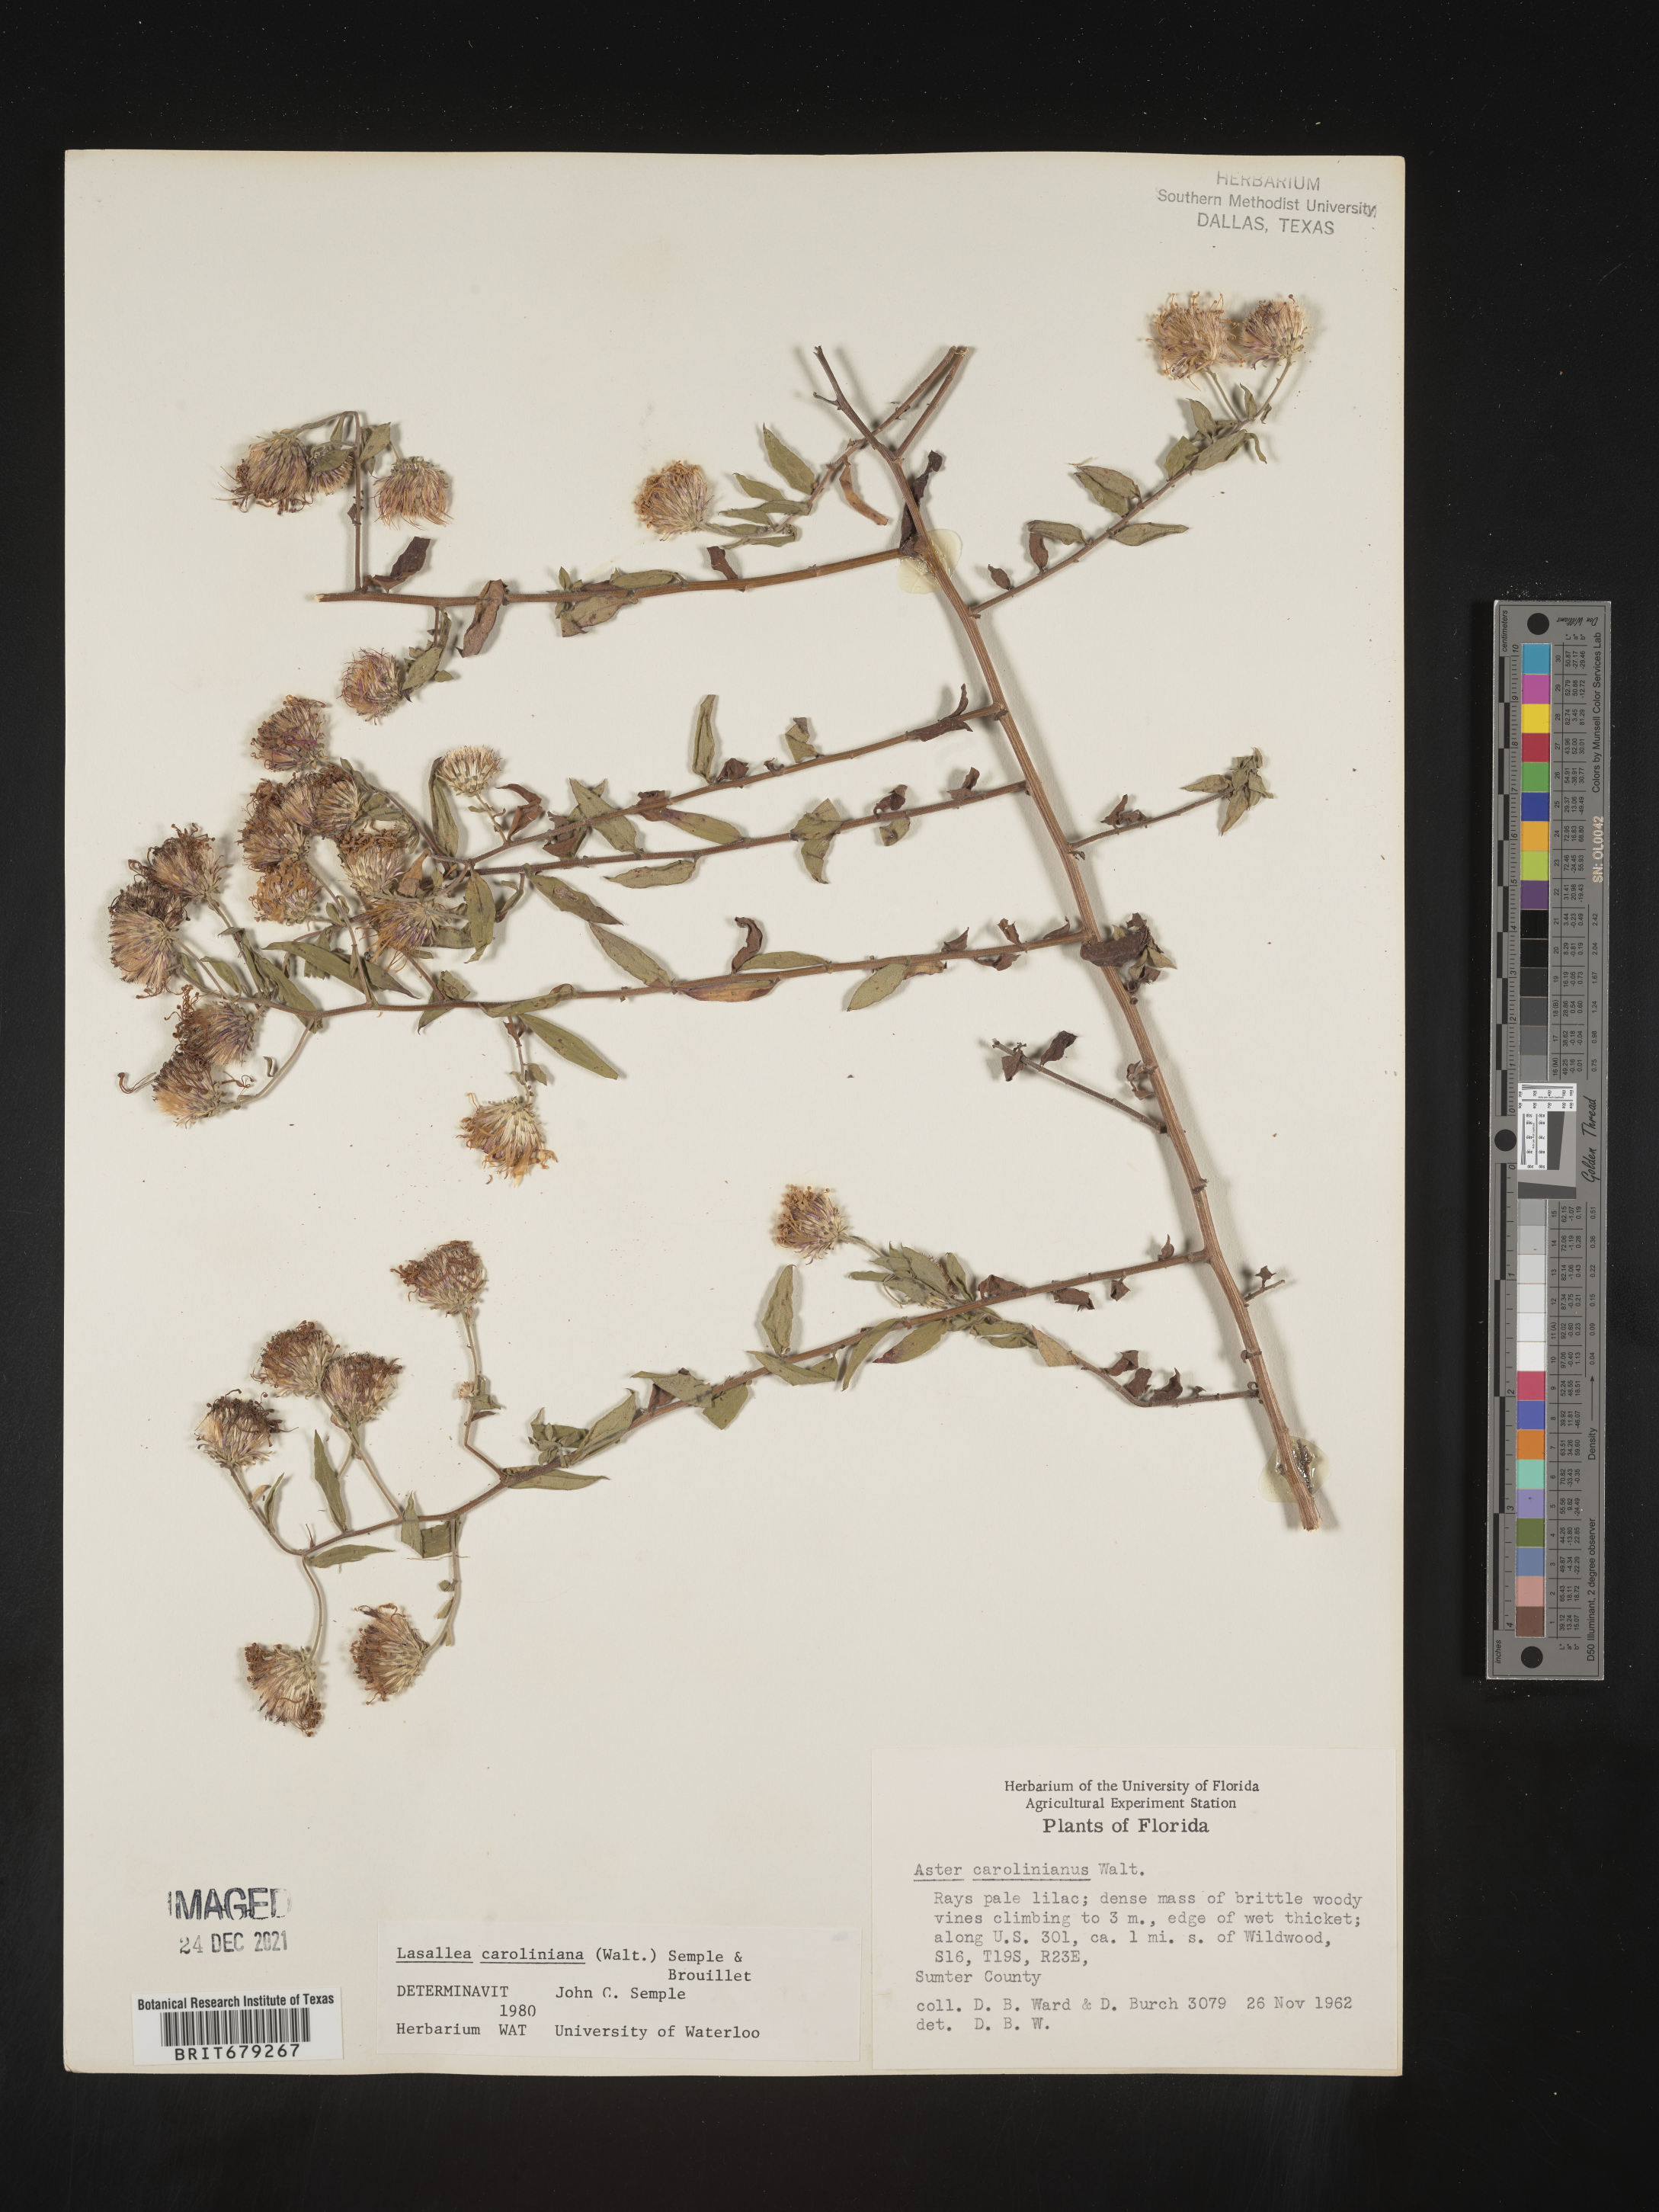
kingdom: Plantae
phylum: Tracheophyta
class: Magnoliopsida
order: Asterales
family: Asteraceae
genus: Ampelaster
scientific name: Ampelaster
